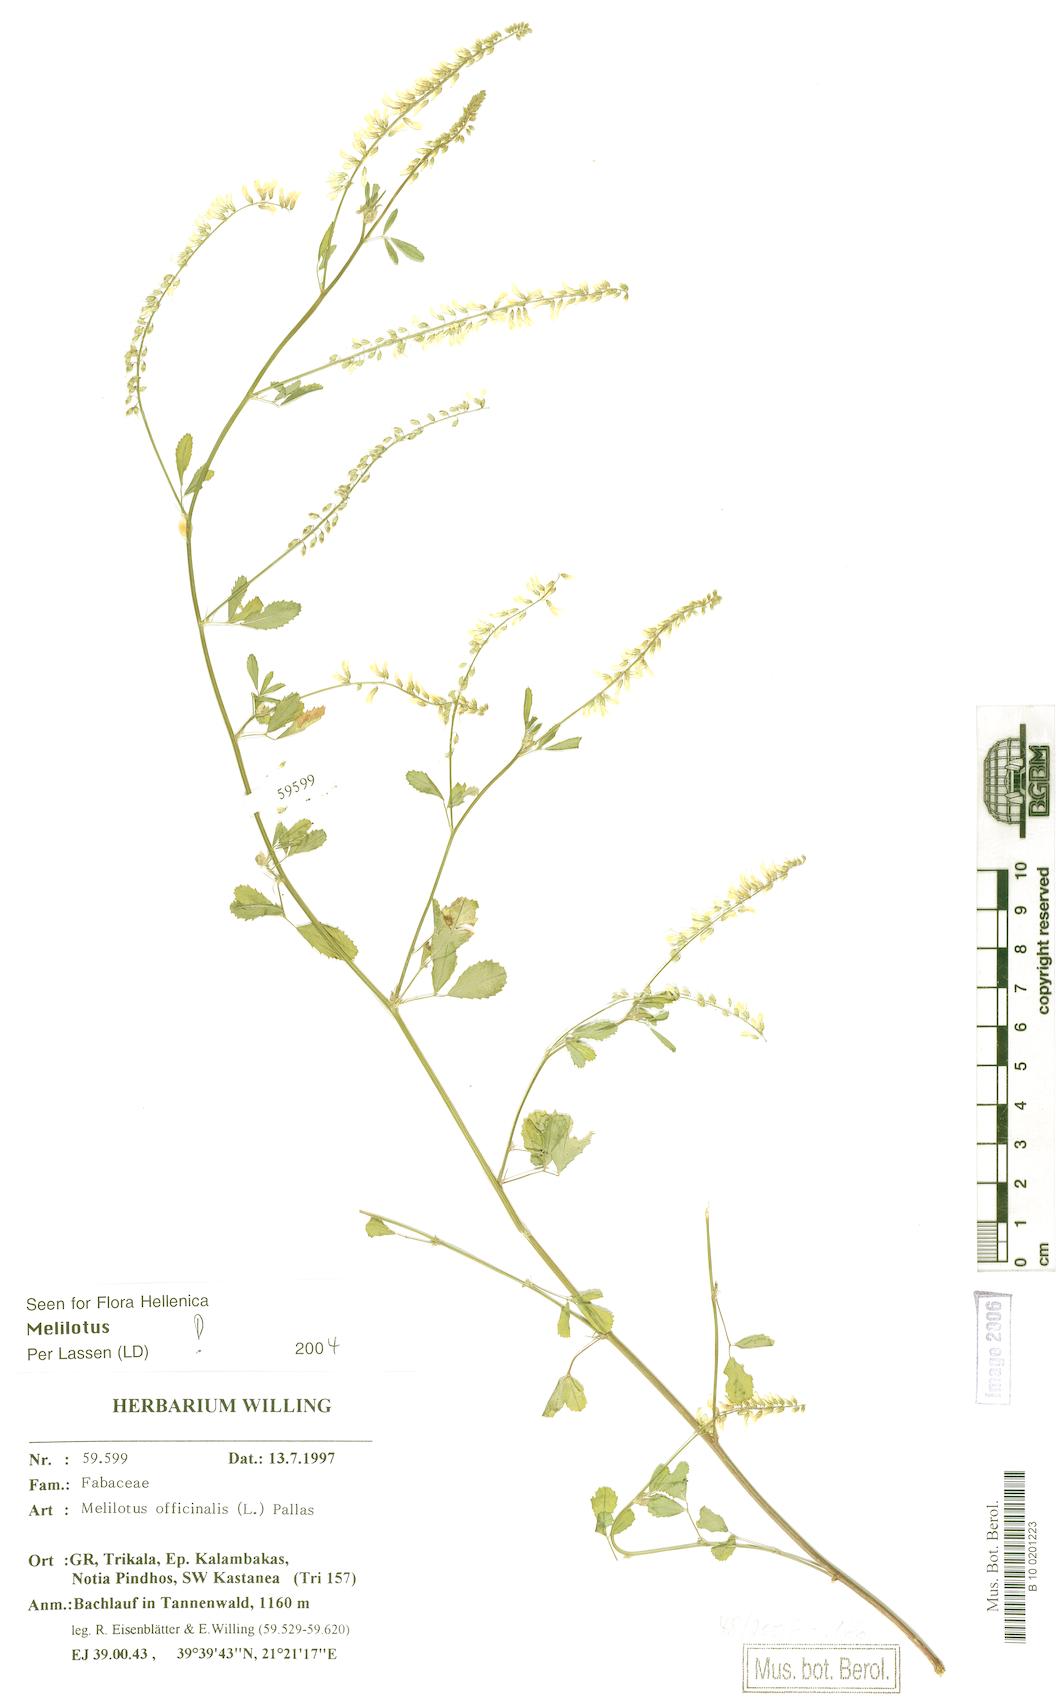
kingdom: Plantae
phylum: Tracheophyta
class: Magnoliopsida
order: Fabales
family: Fabaceae
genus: Melilotus
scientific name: Melilotus officinalis
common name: Sweetclover
